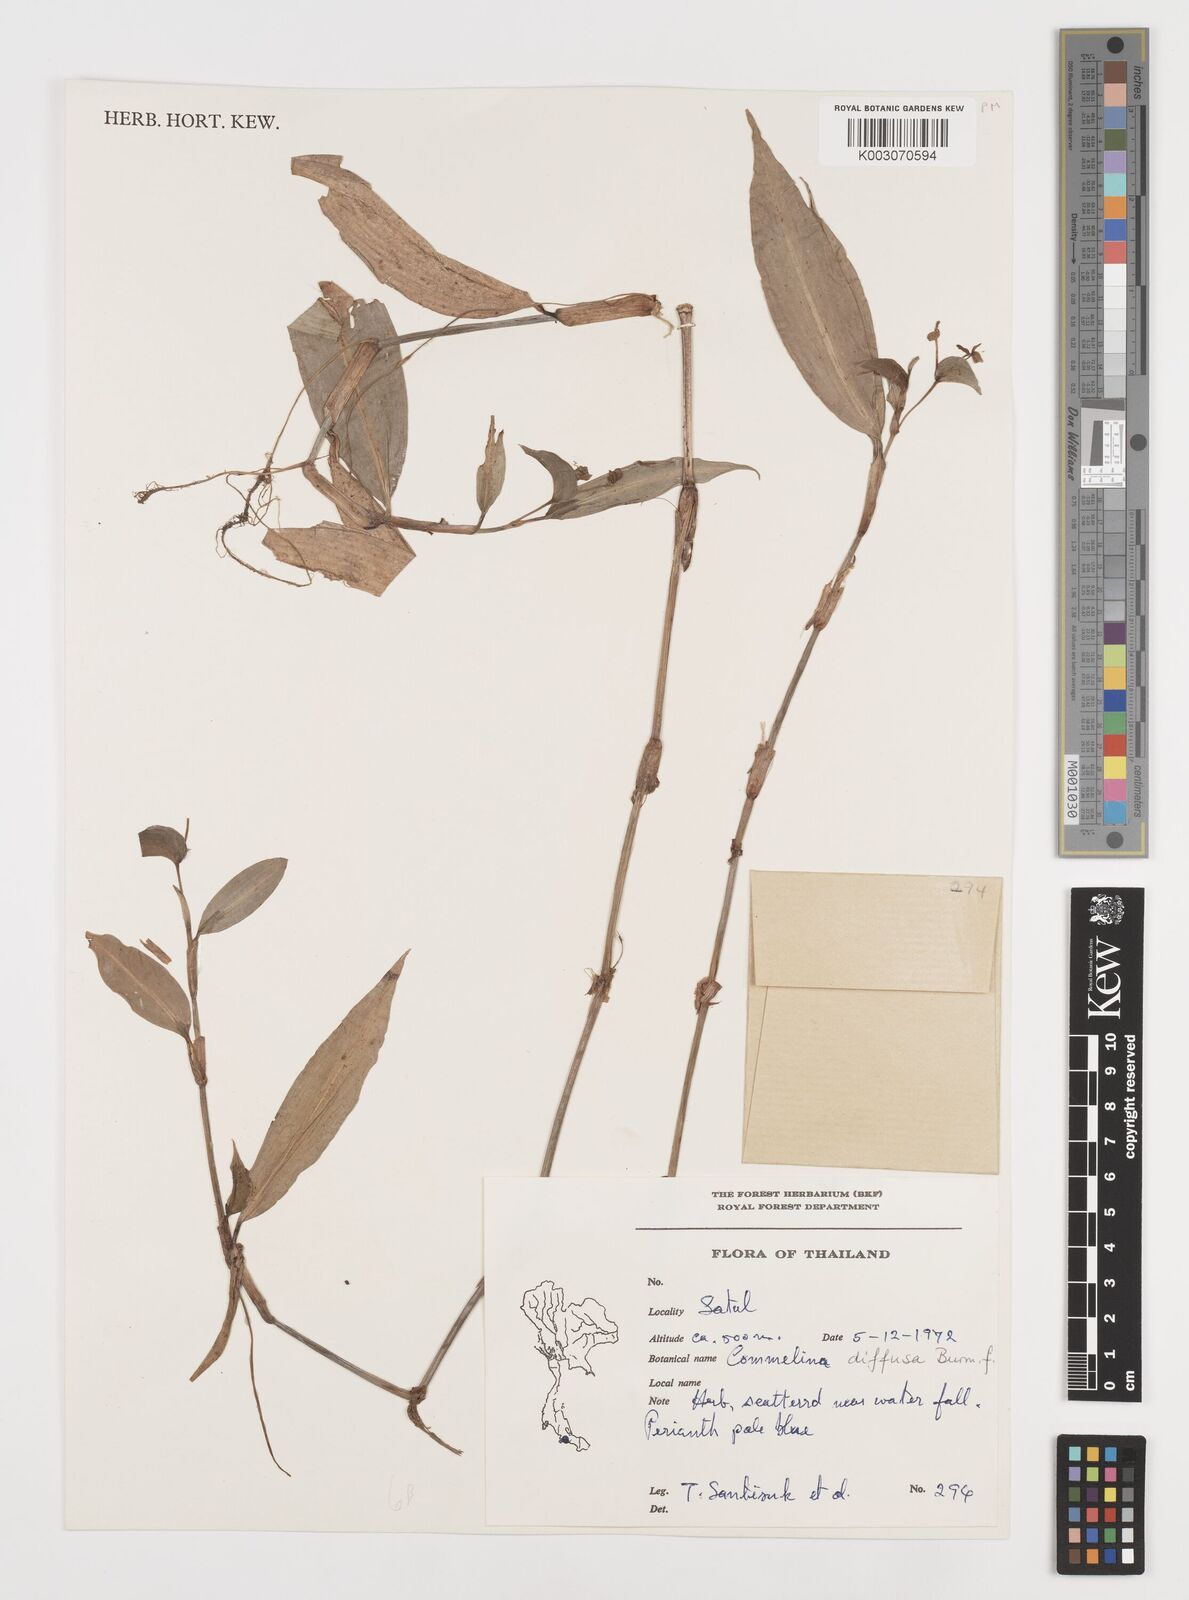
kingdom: Plantae
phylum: Tracheophyta
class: Liliopsida
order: Commelinales
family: Commelinaceae
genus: Commelina
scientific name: Commelina clavata
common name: Willow leaved dayflower
